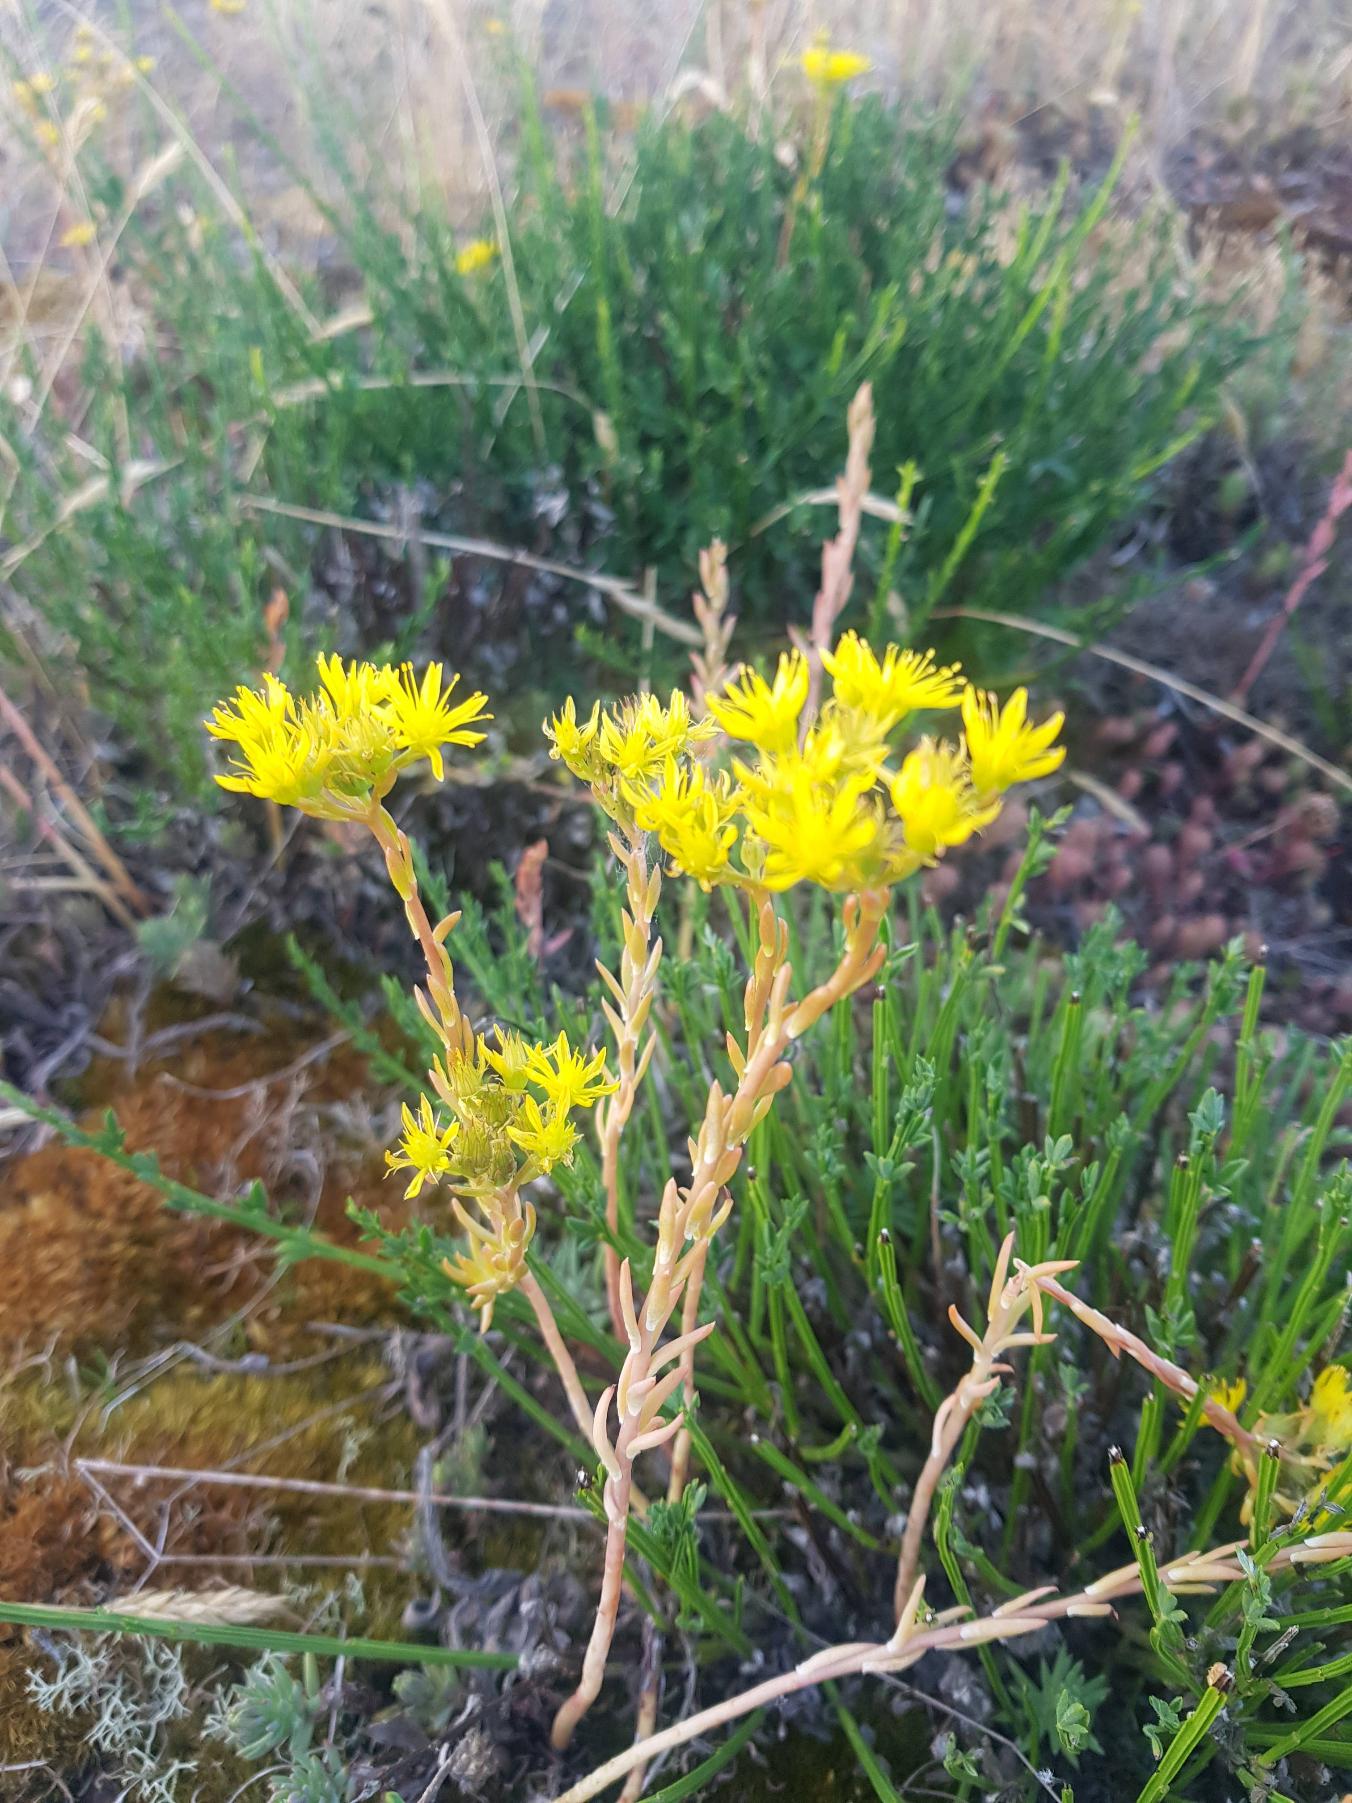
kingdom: Plantae
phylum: Tracheophyta
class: Magnoliopsida
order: Saxifragales
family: Crassulaceae
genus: Petrosedum
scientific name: Petrosedum rupestre
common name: Bjerg-stenurt
